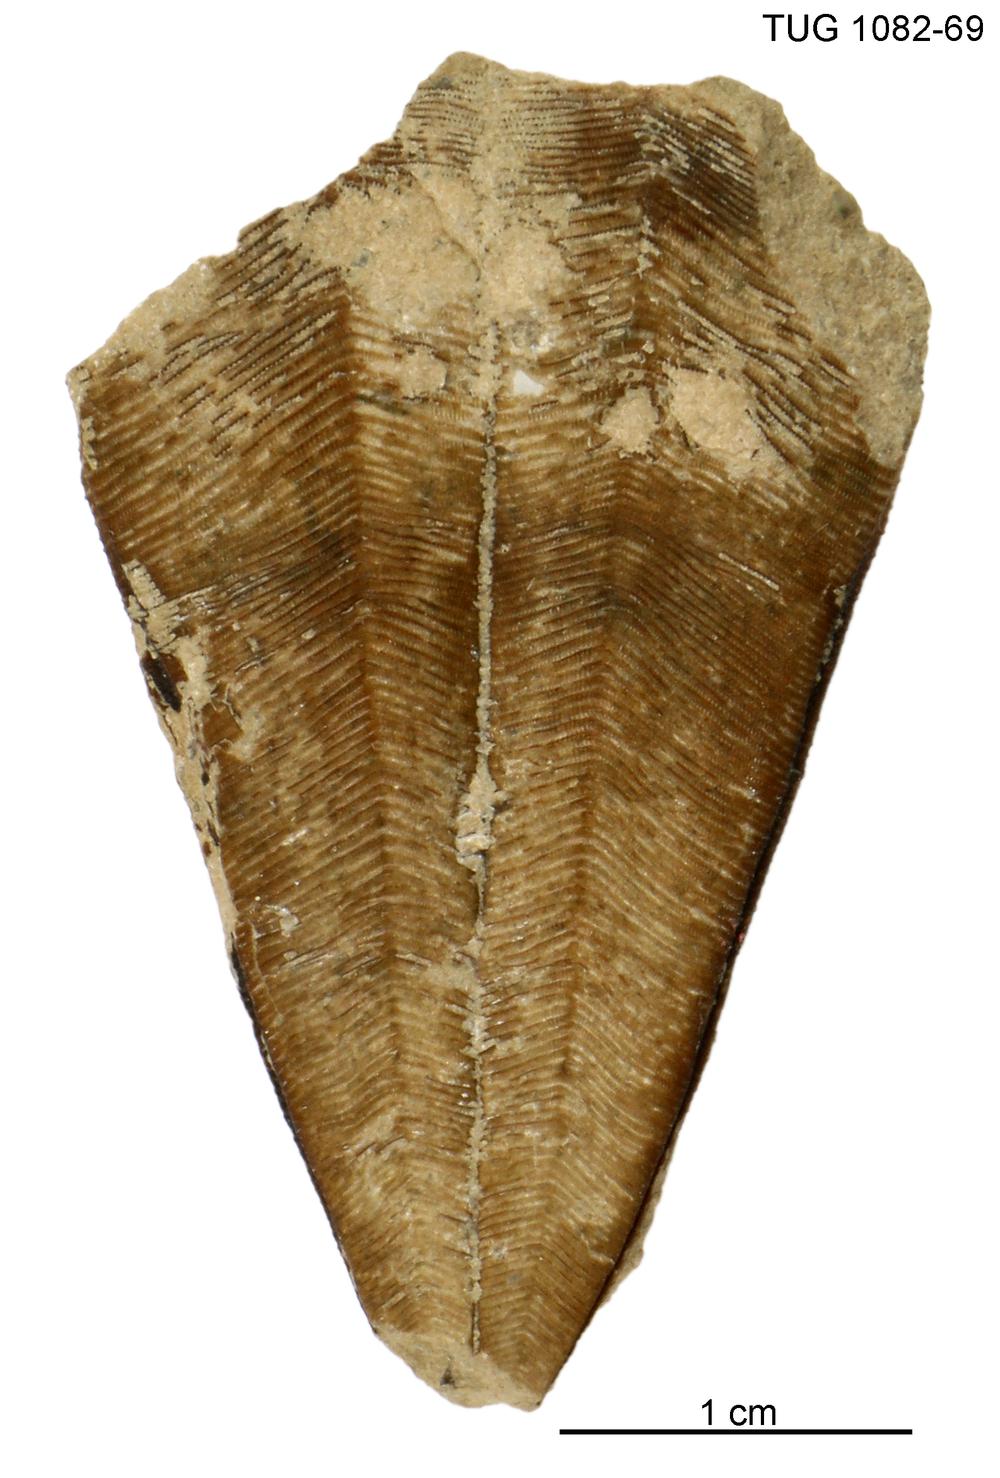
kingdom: Animalia
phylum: Cnidaria
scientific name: Cnidaria
